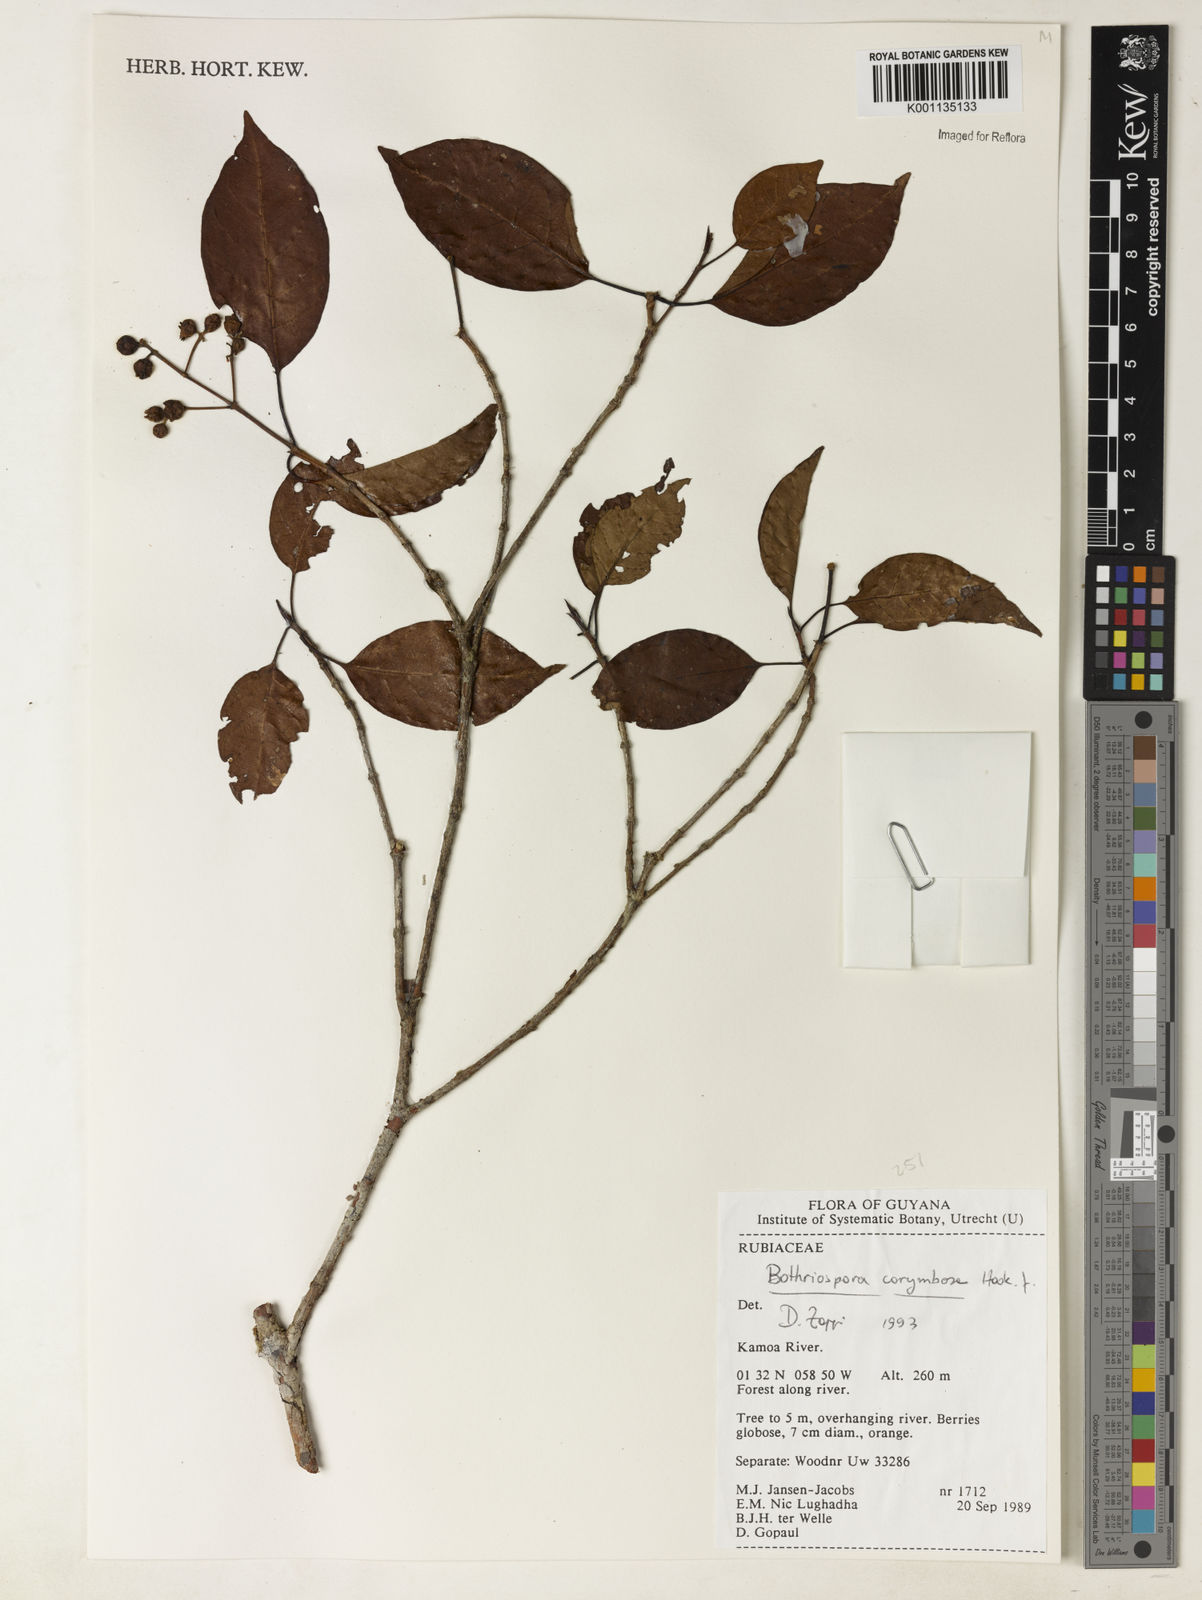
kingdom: Plantae
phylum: Tracheophyta
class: Magnoliopsida
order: Gentianales
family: Rubiaceae
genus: Bothriospora
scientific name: Bothriospora corymbosa
